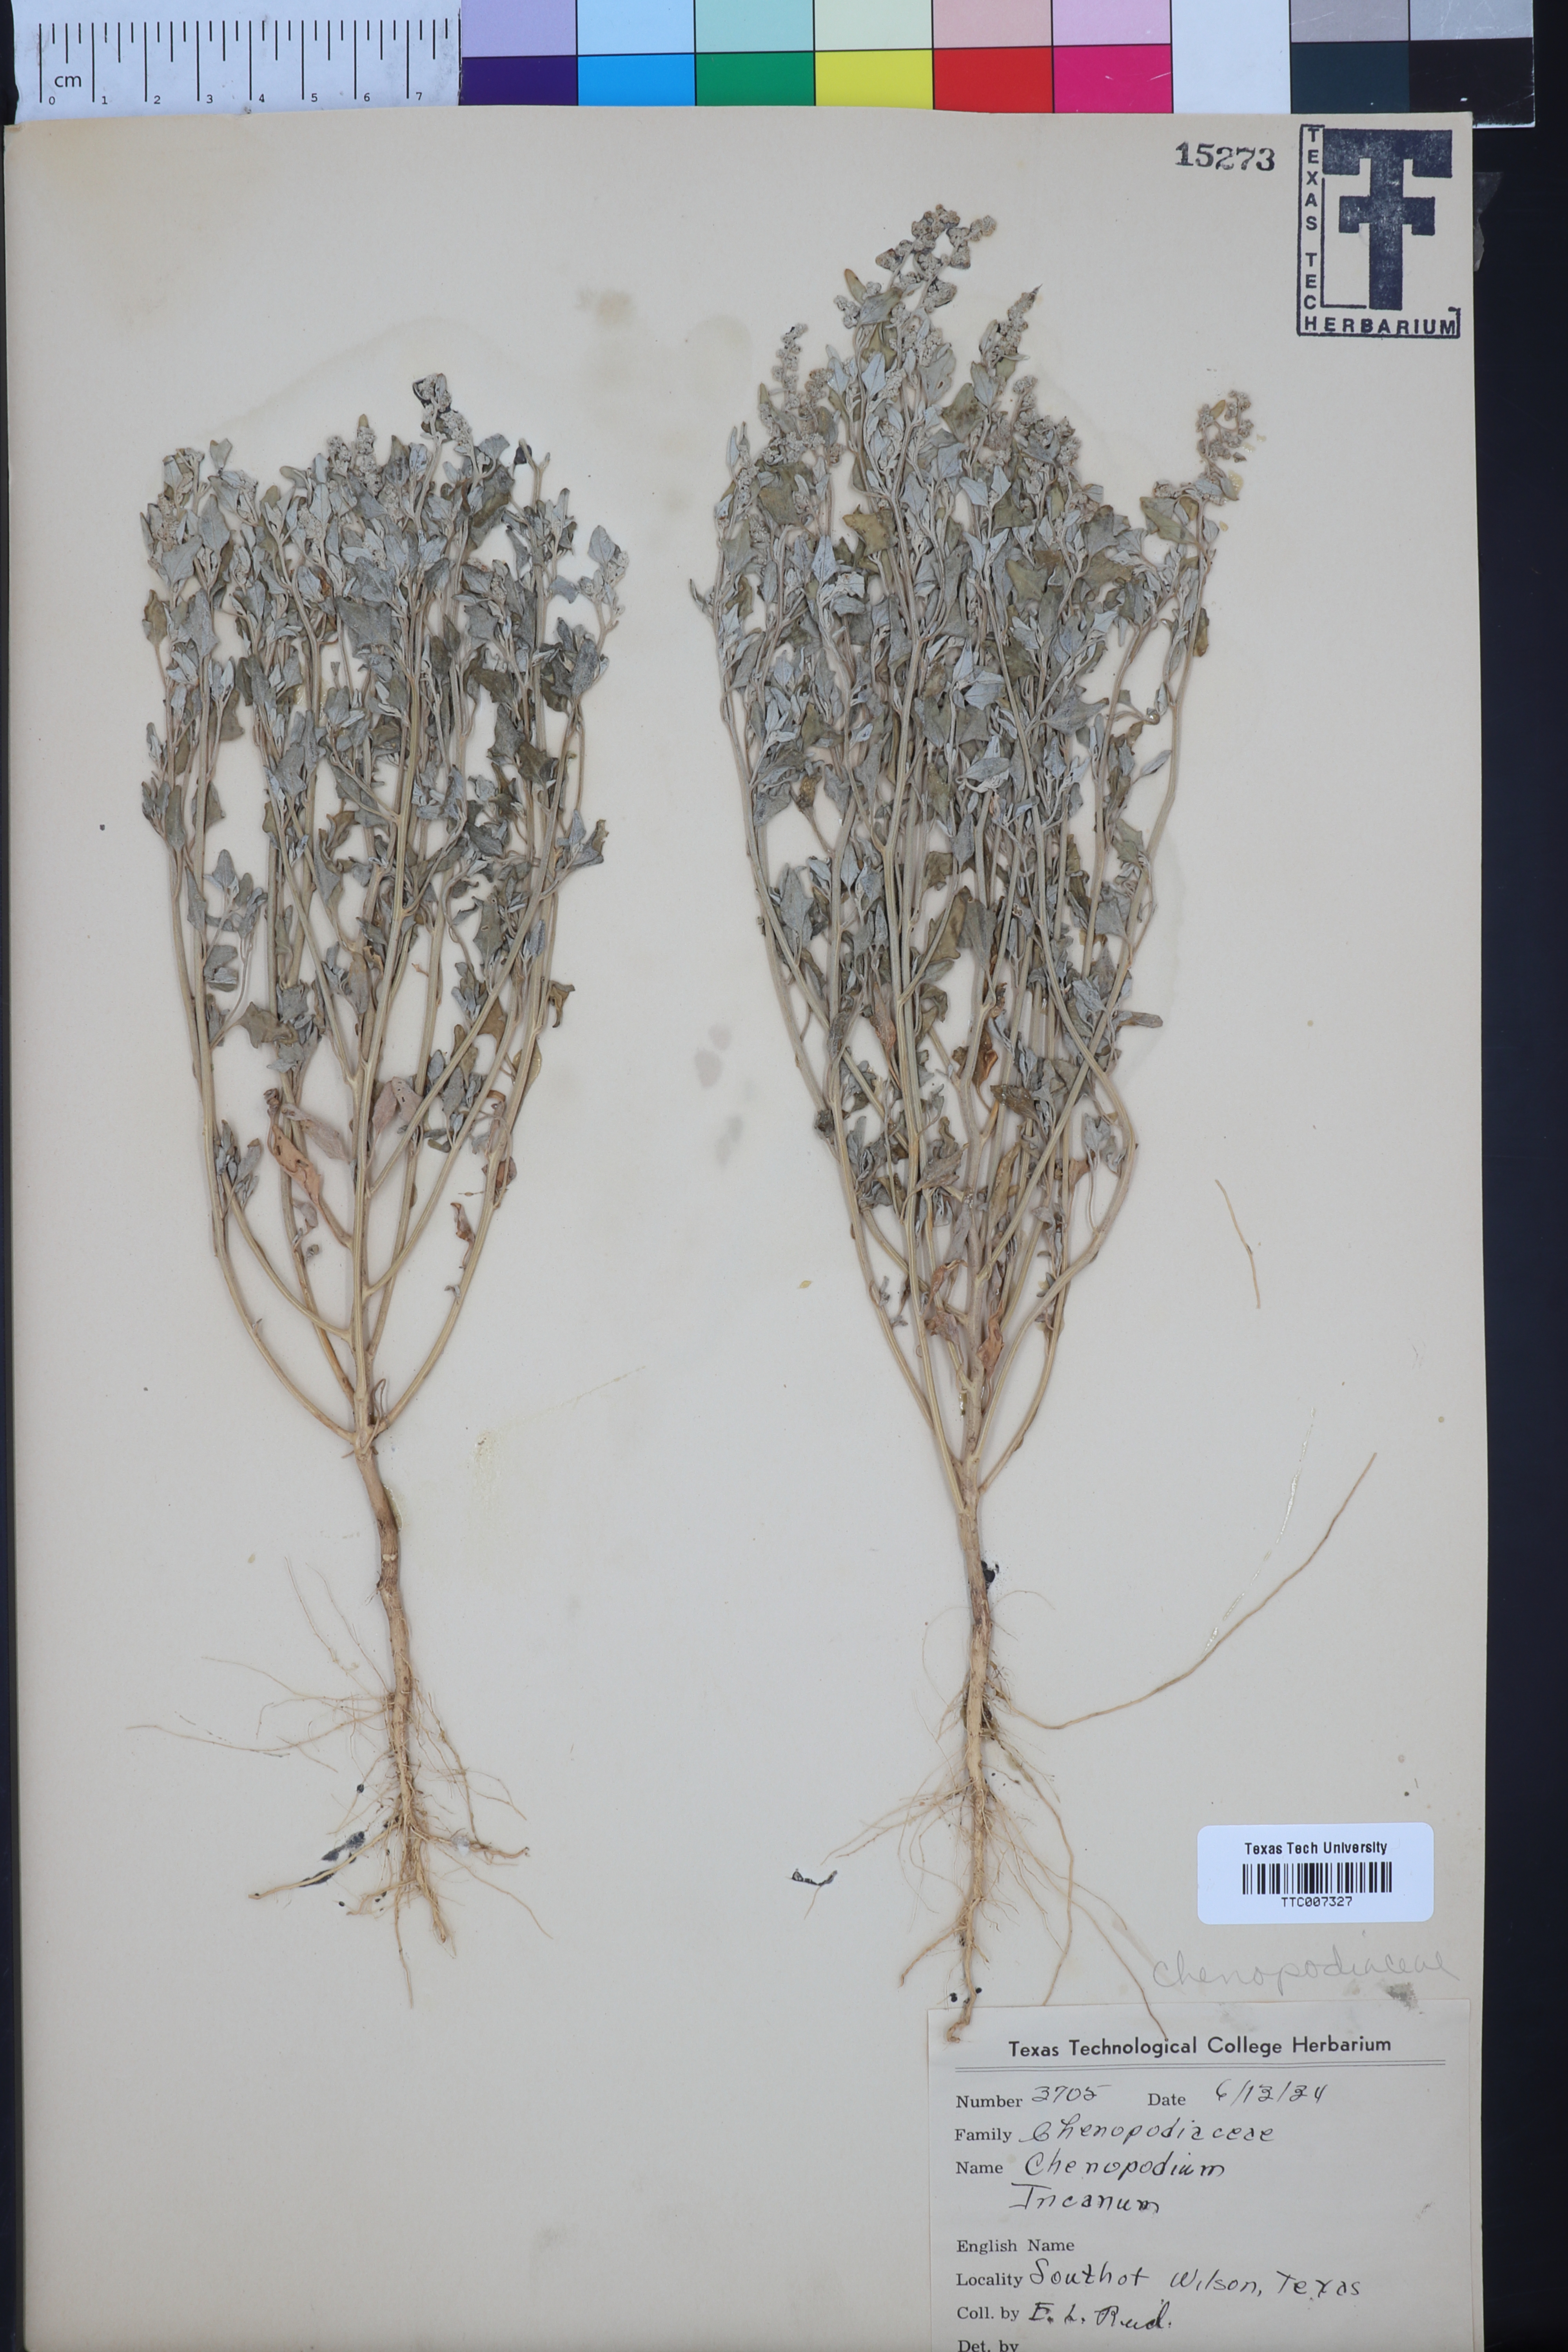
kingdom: Plantae
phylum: Tracheophyta
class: Magnoliopsida
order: Caryophyllales
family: Amaranthaceae
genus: Chenopodium
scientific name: Chenopodium incanum
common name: Hoary goosefoot
